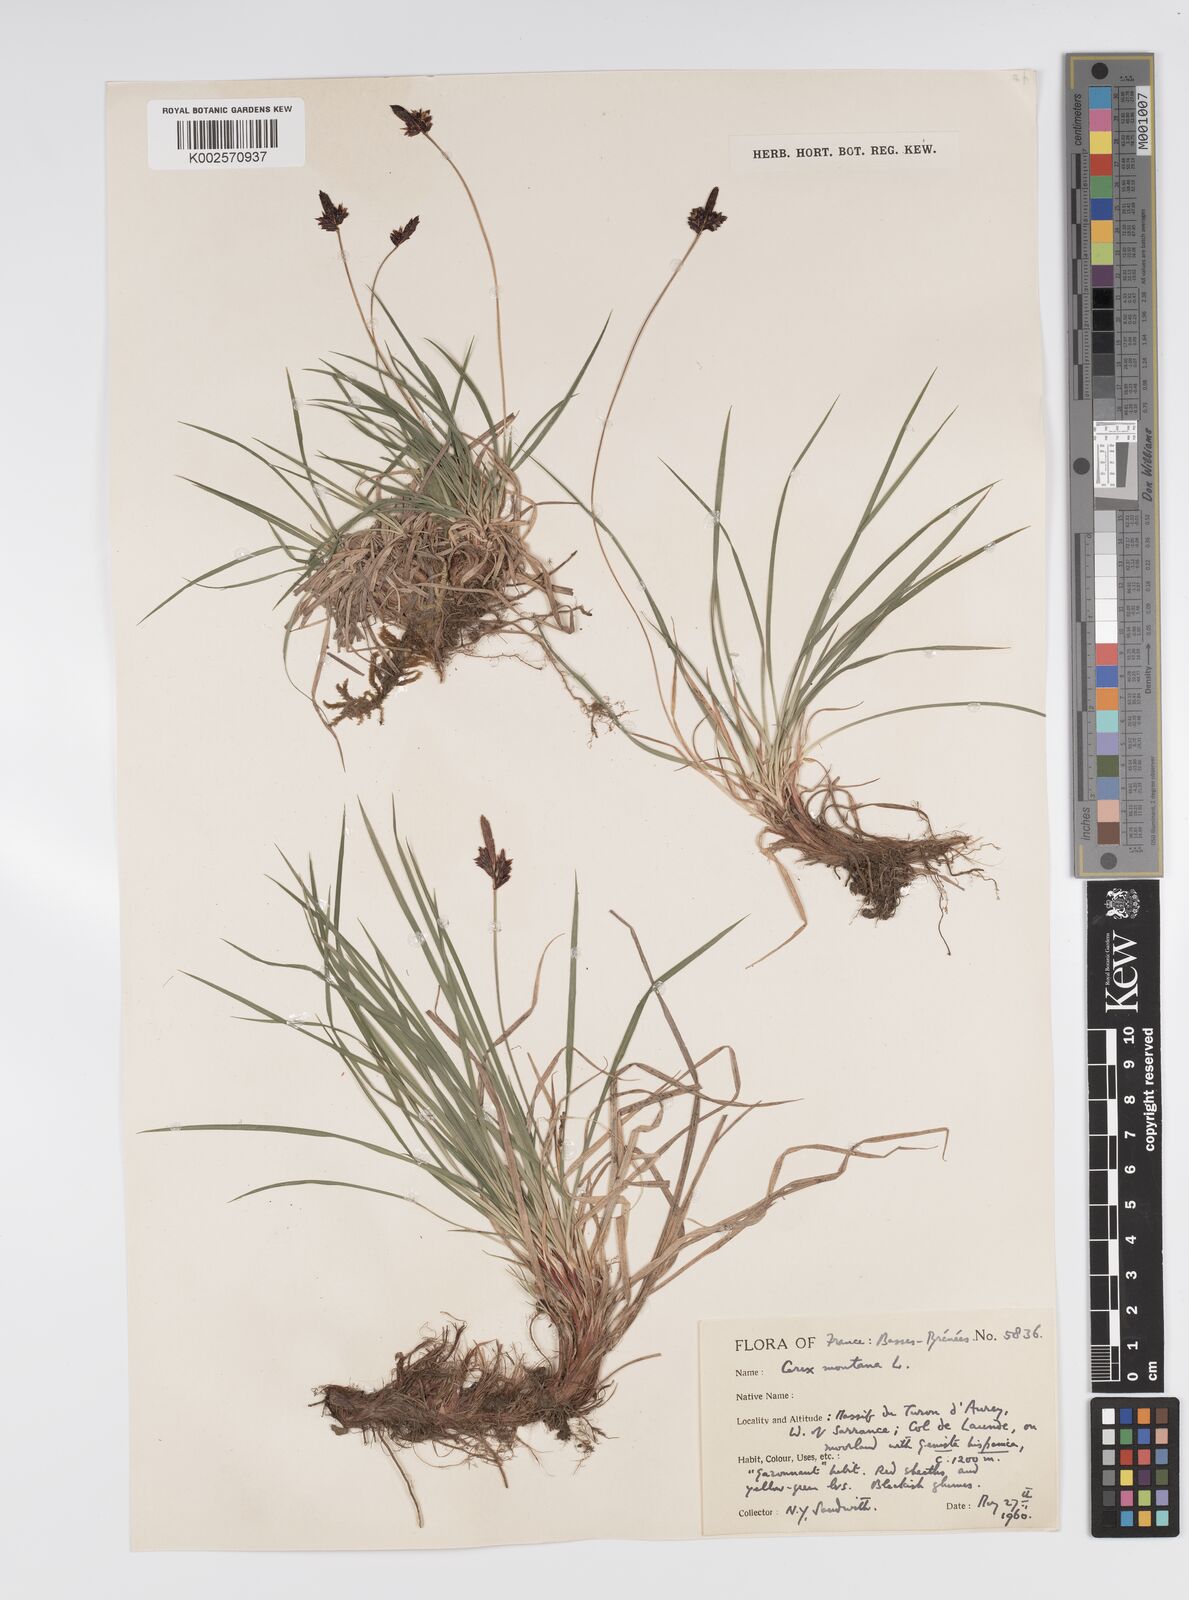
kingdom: Plantae
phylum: Tracheophyta
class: Liliopsida
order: Poales
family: Cyperaceae
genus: Carex
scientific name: Carex montana
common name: Soft-leaved sedge
